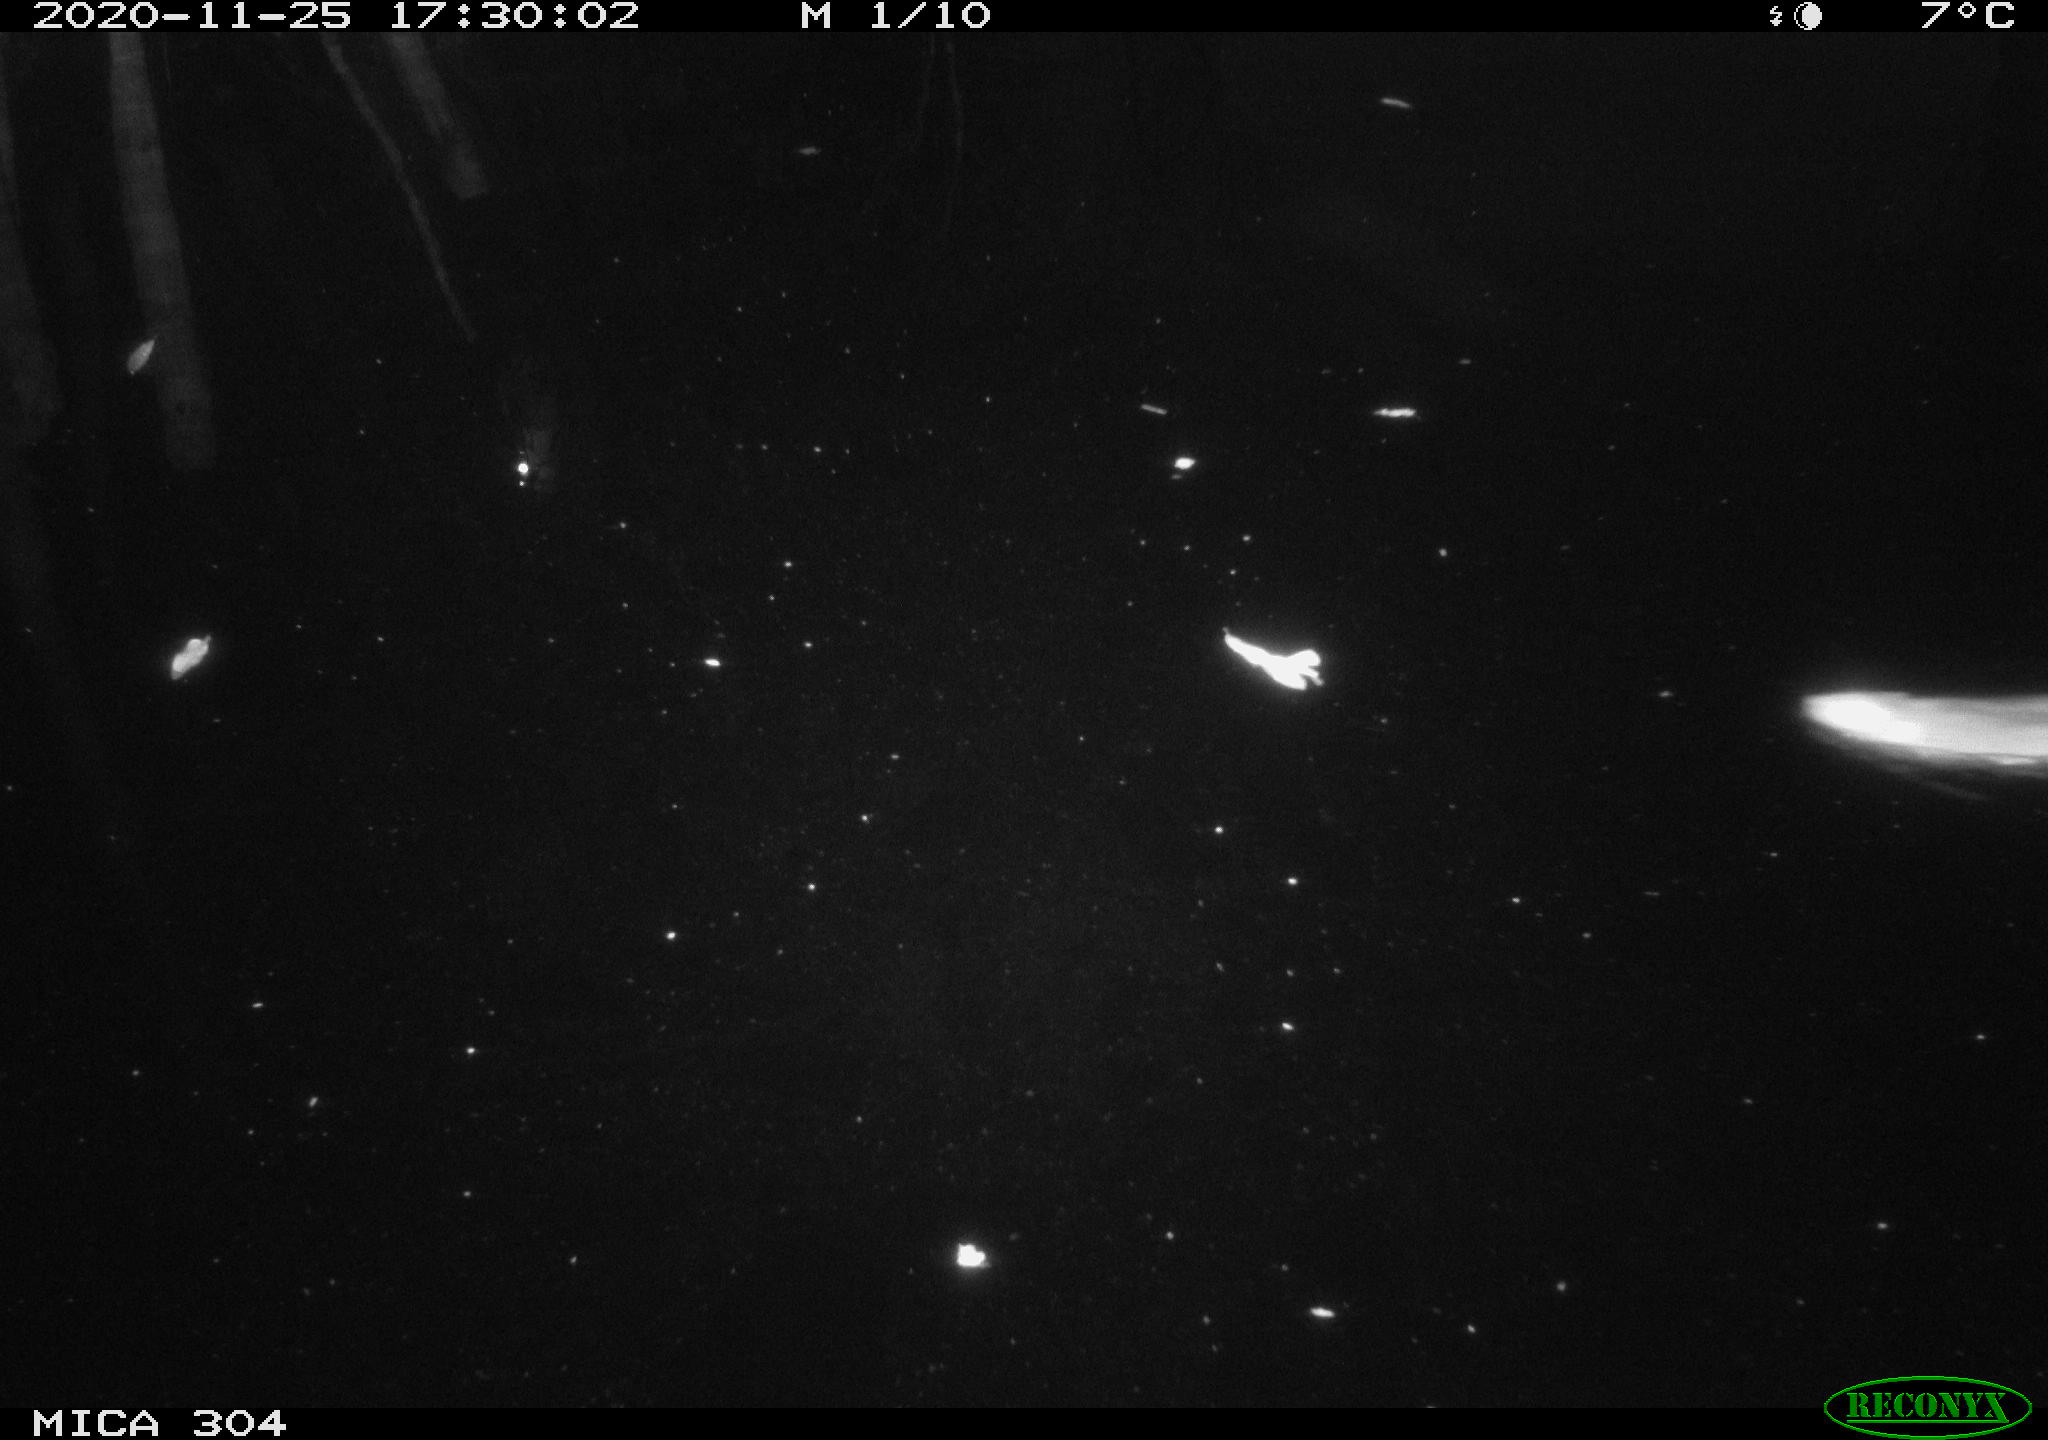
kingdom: Animalia
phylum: Chordata
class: Mammalia
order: Rodentia
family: Muridae
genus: Rattus
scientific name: Rattus norvegicus
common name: Brown rat
